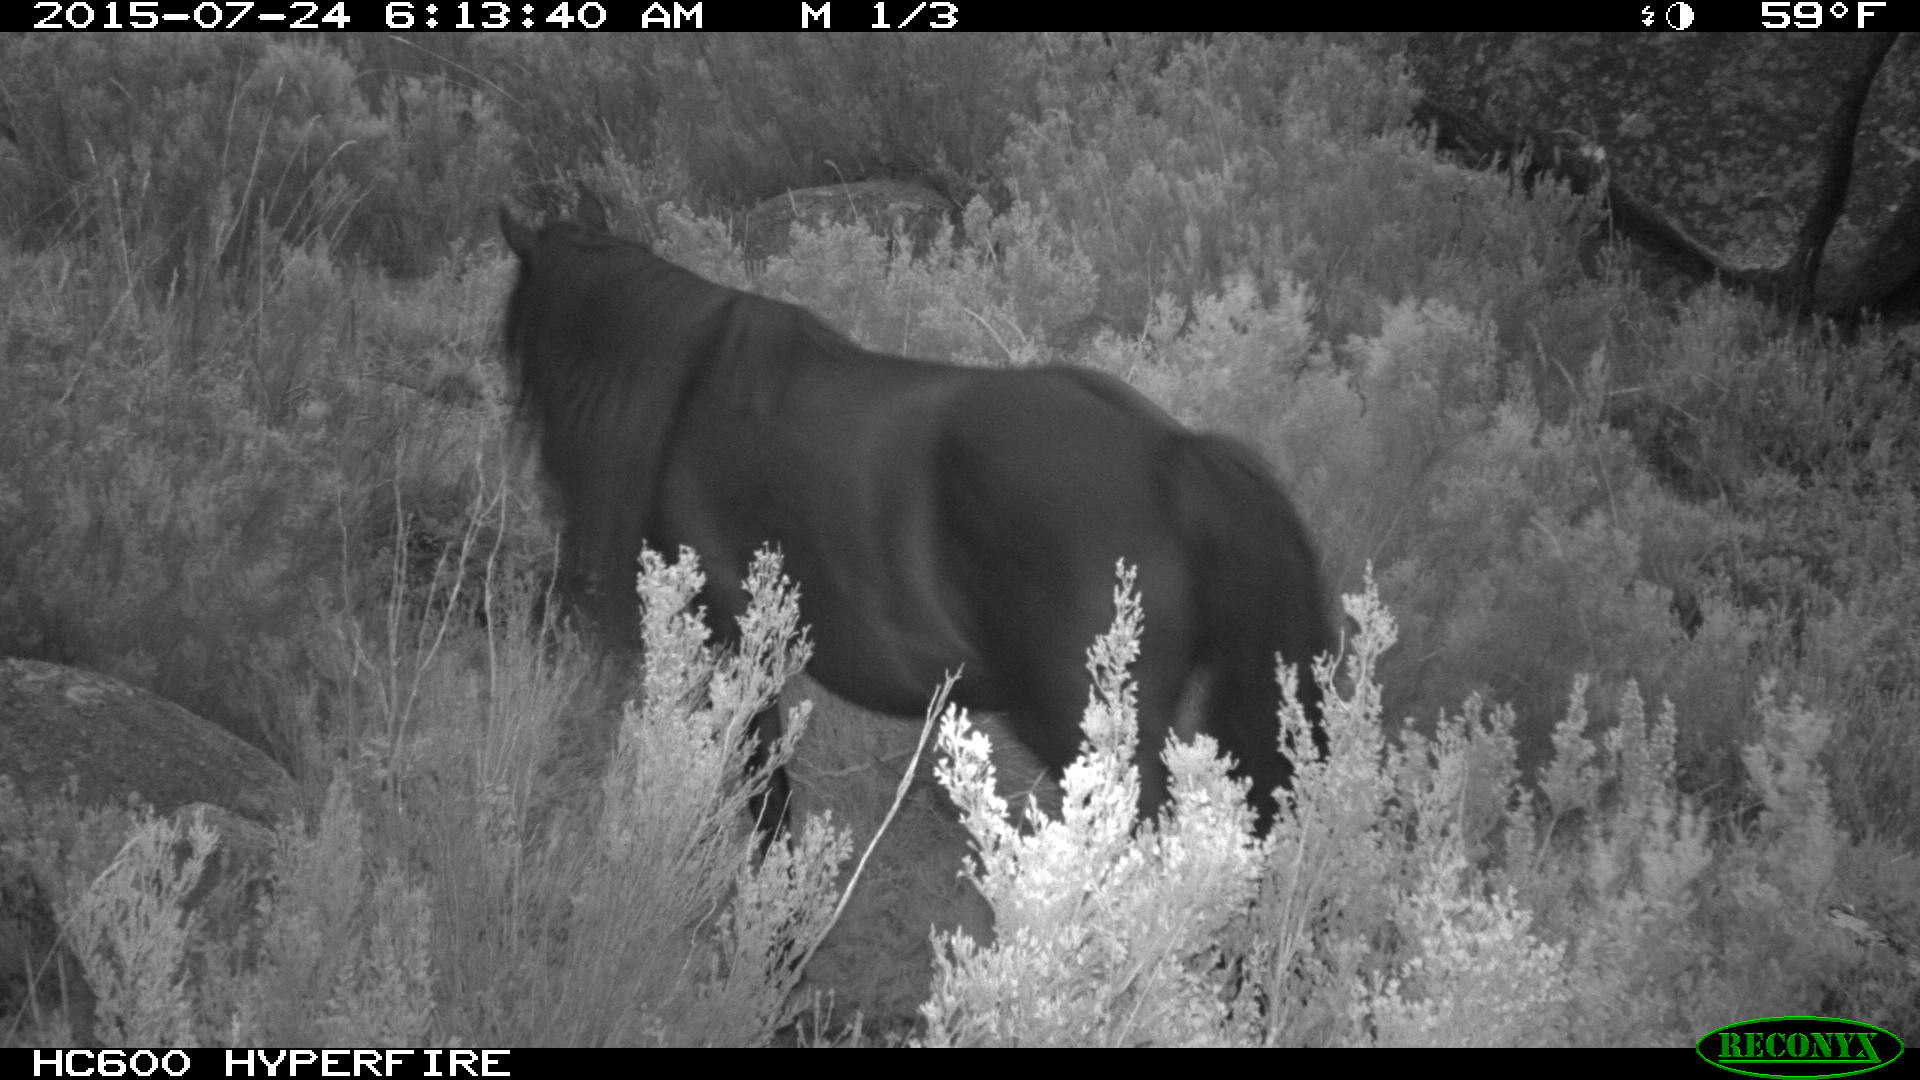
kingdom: Animalia
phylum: Chordata
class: Mammalia
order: Perissodactyla
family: Equidae
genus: Equus
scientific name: Equus caballus
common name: Horse
